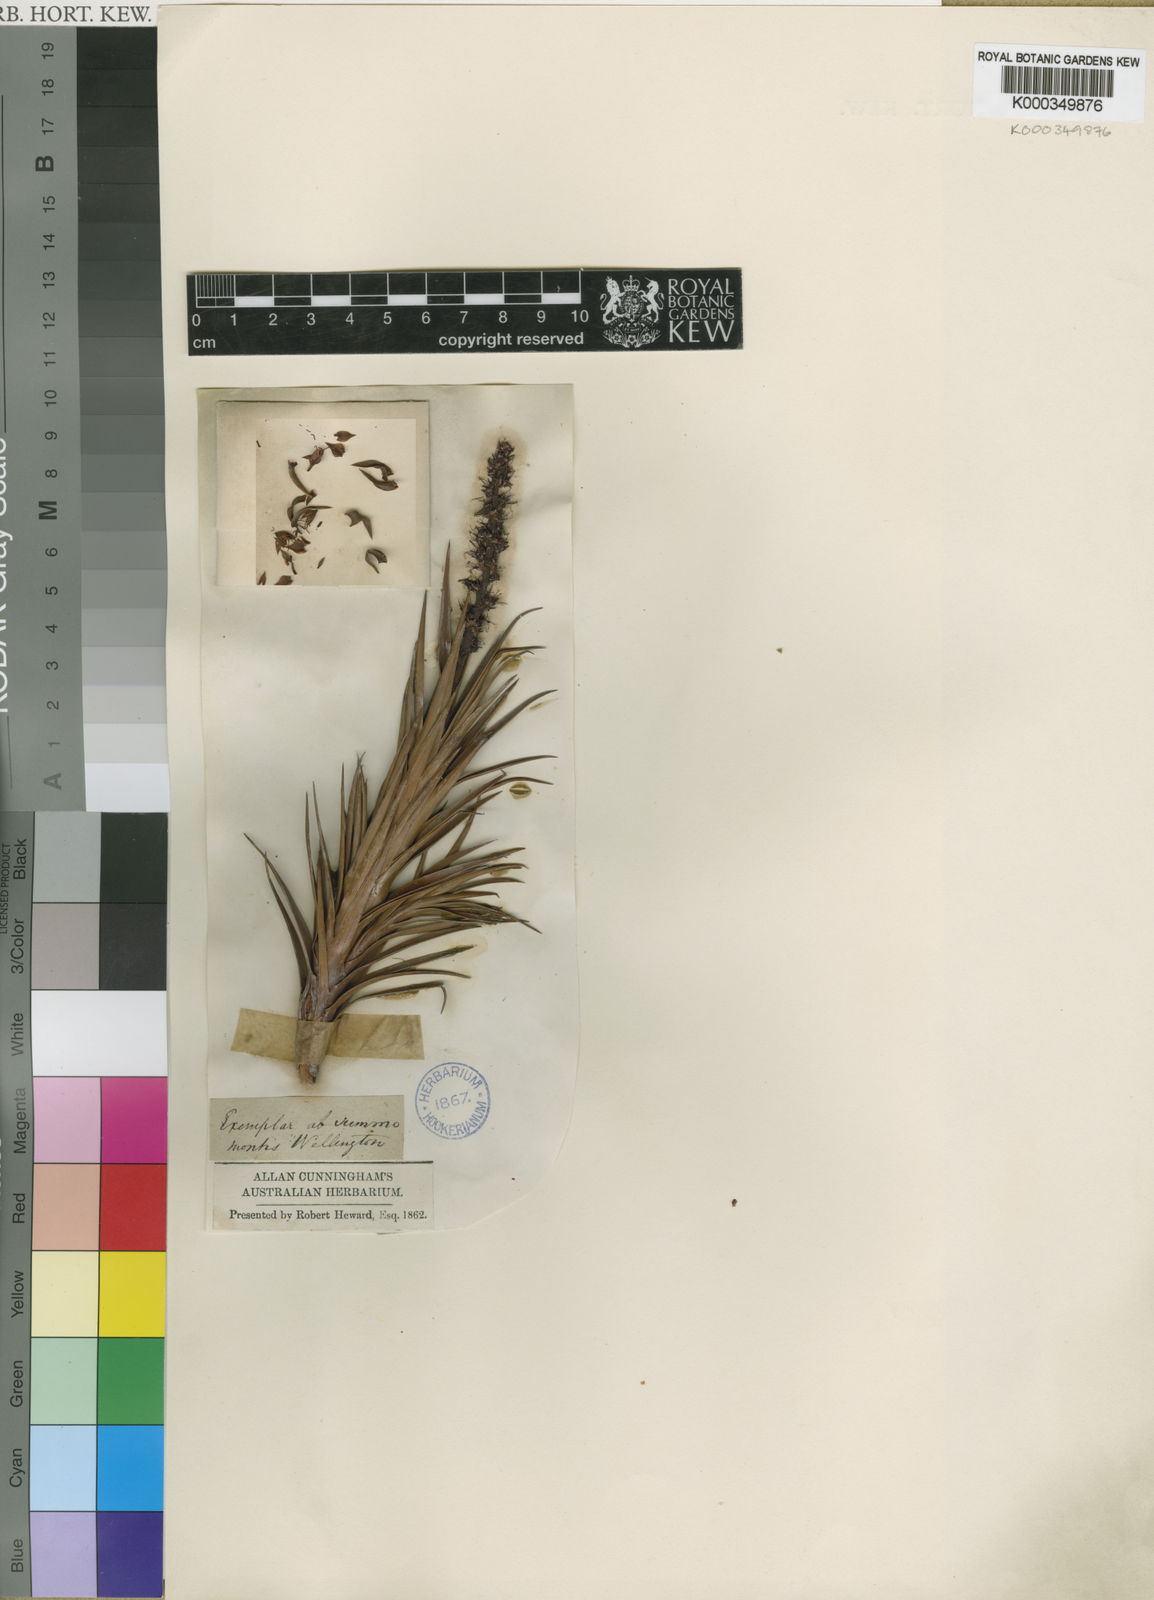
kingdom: Plantae
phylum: Tracheophyta
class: Magnoliopsida
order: Ericales
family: Ericaceae
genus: Richea
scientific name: Richea
